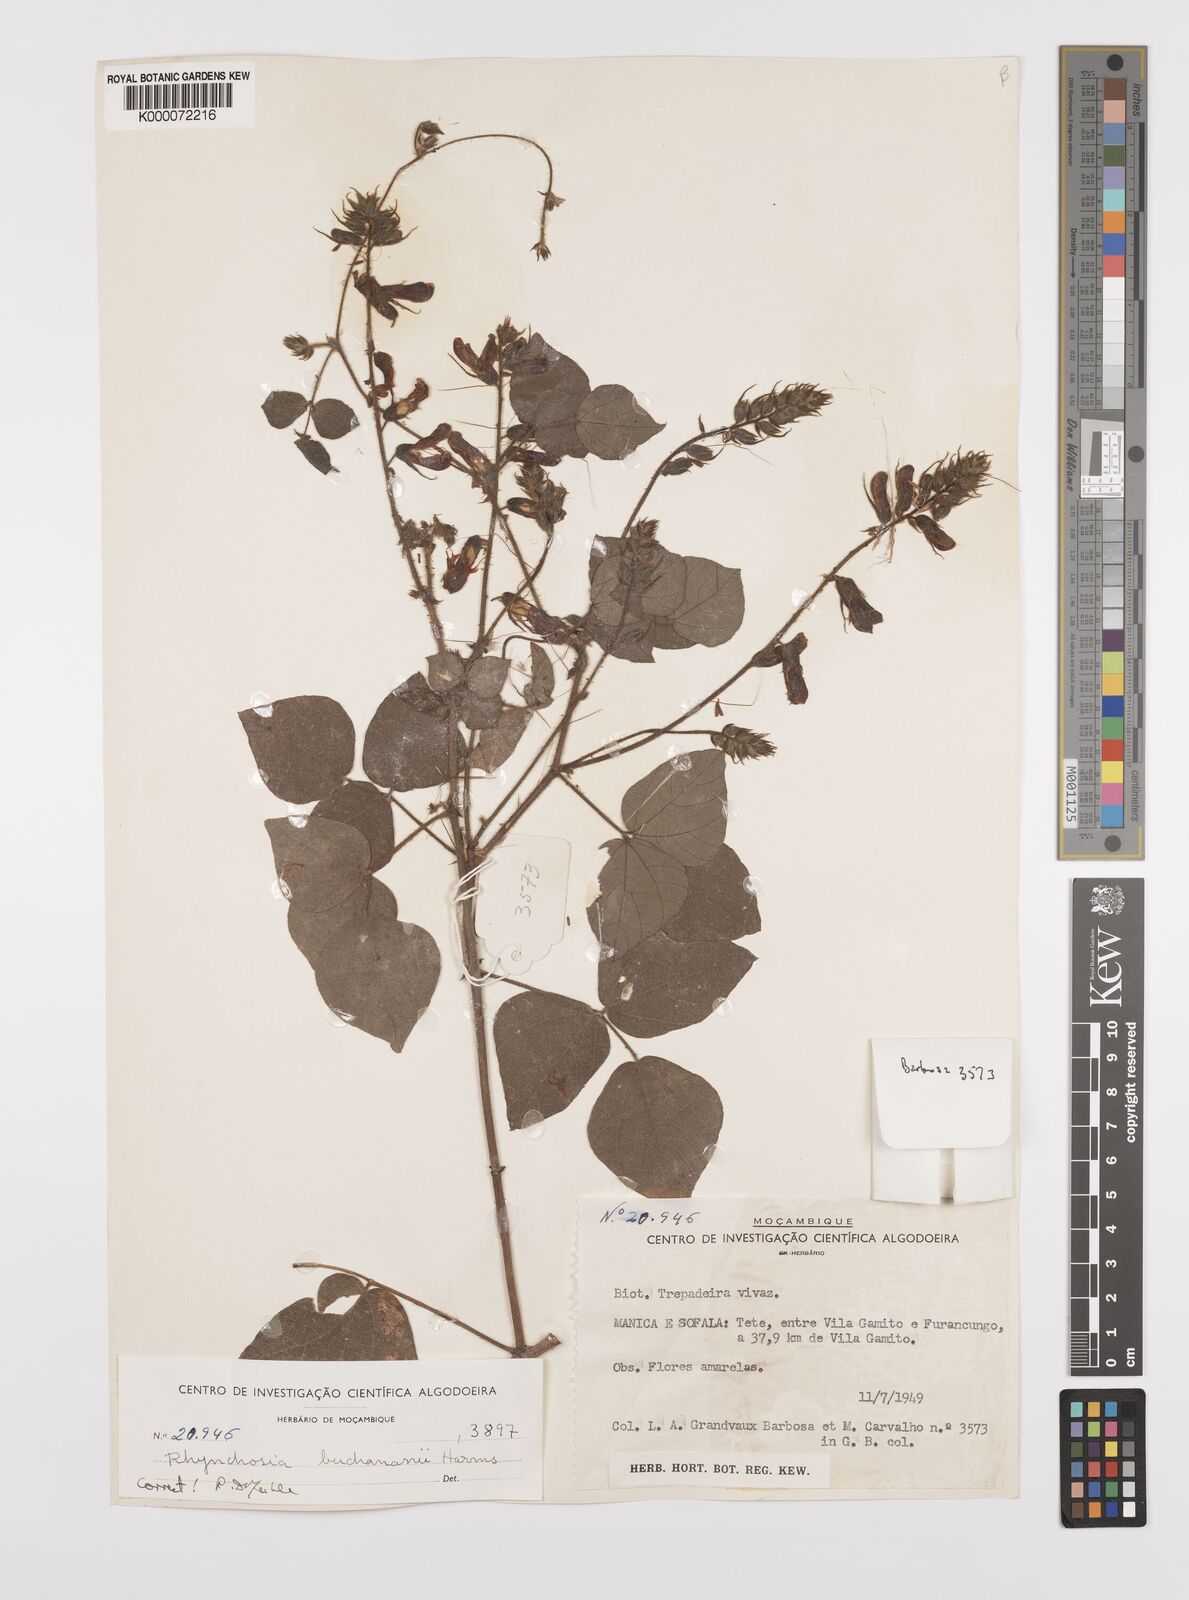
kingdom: Plantae
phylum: Tracheophyta
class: Magnoliopsida
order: Fabales
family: Fabaceae
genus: Rhynchosia
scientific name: Rhynchosia buchananii
